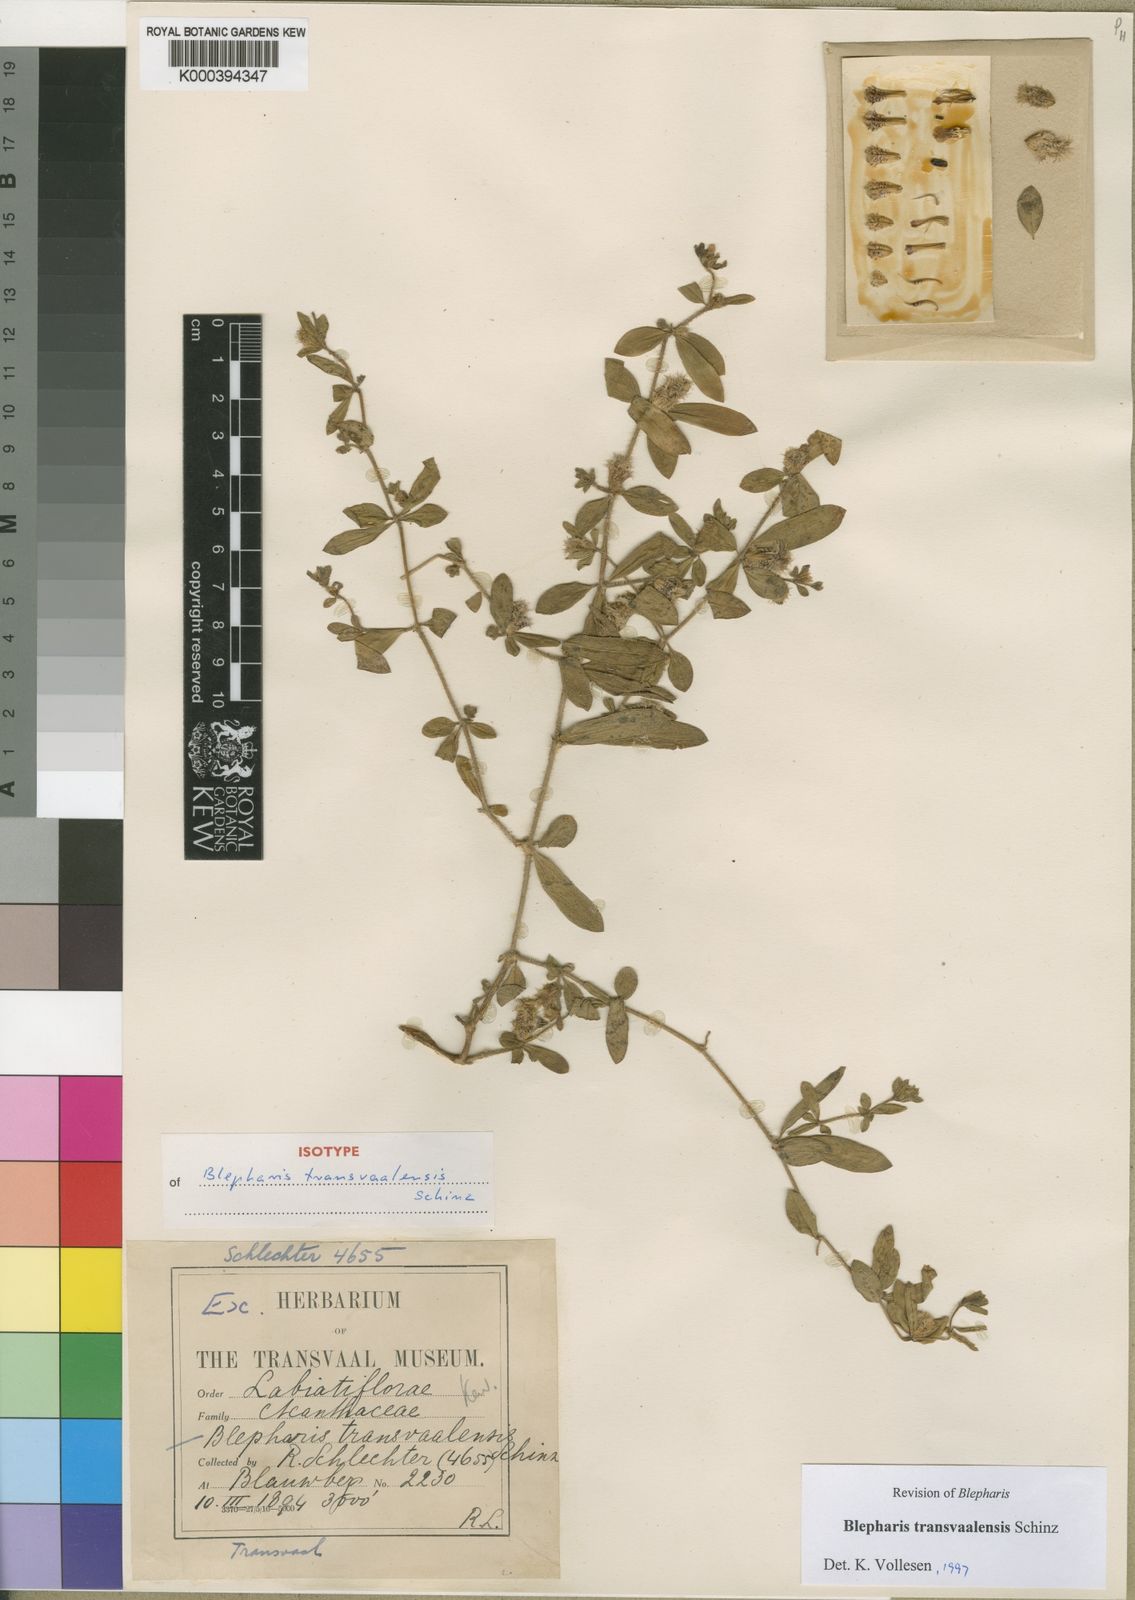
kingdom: Plantae
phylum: Tracheophyta
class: Magnoliopsida
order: Lamiales
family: Acanthaceae
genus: Blepharis
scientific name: Blepharis transvaalensis
